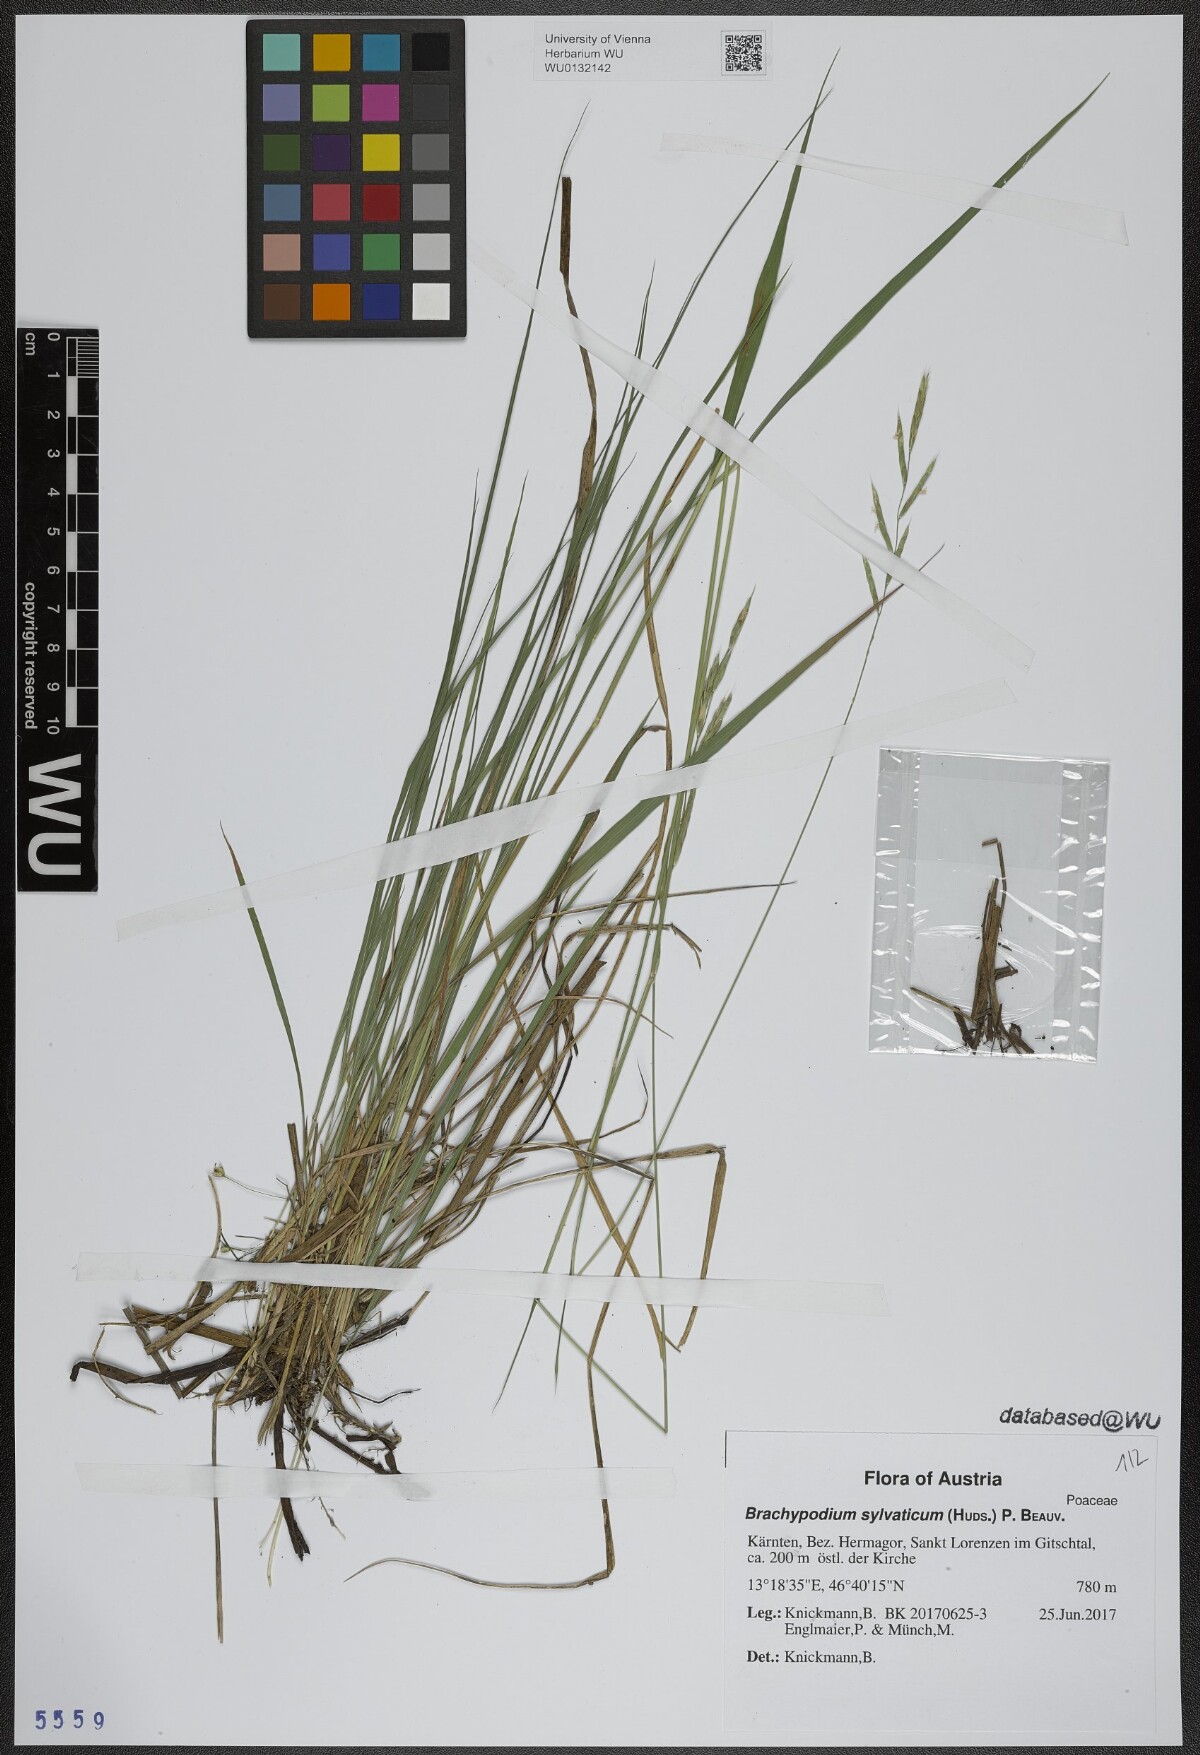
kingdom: Plantae
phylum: Tracheophyta
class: Liliopsida
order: Poales
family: Poaceae
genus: Brachypodium
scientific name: Brachypodium sylvaticum
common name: False-brome
